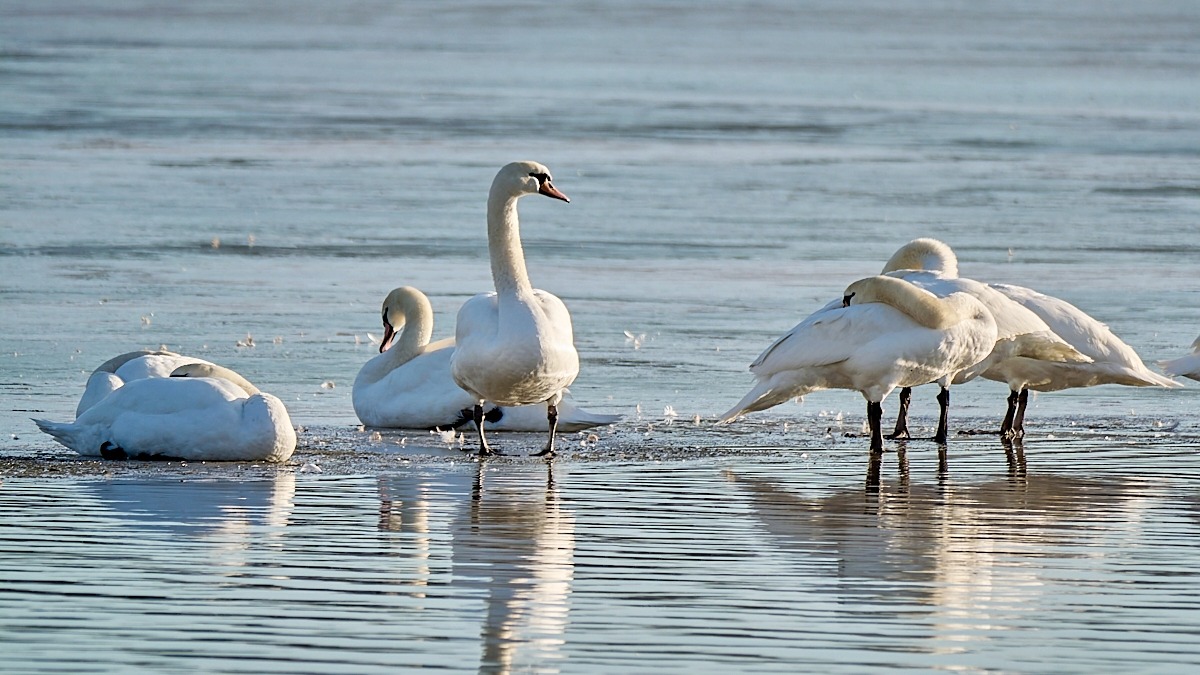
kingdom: Animalia
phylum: Chordata
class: Aves
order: Anseriformes
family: Anatidae
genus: Cygnus
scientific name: Cygnus olor
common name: Knopsvane
